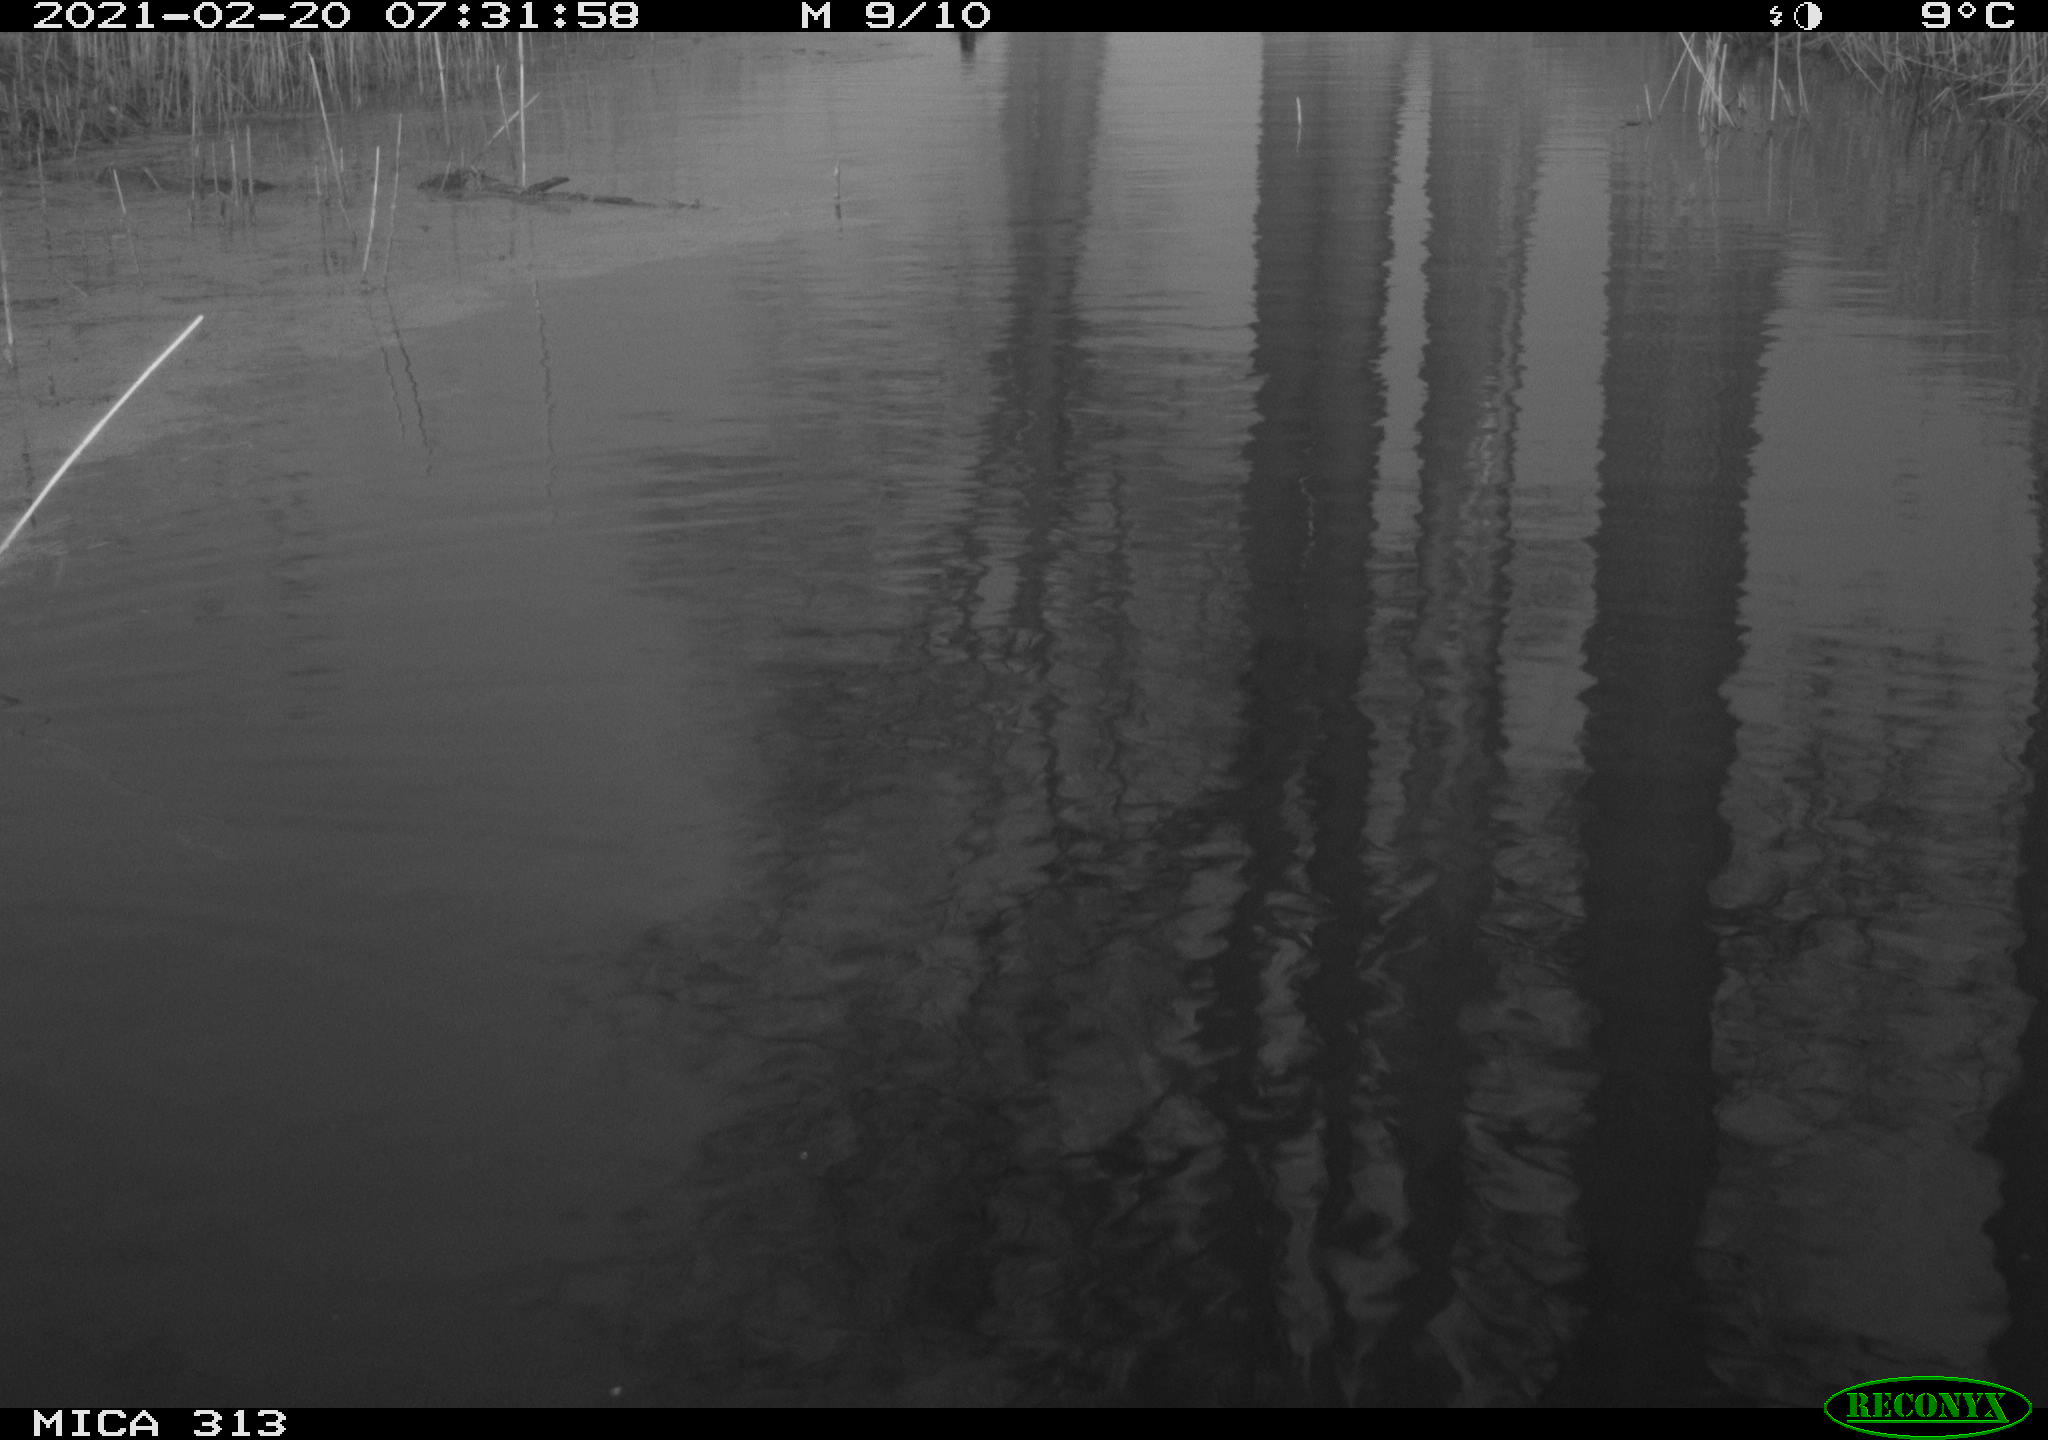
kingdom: Animalia
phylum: Chordata
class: Aves
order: Gruiformes
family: Rallidae
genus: Gallinula
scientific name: Gallinula chloropus
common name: Common moorhen
